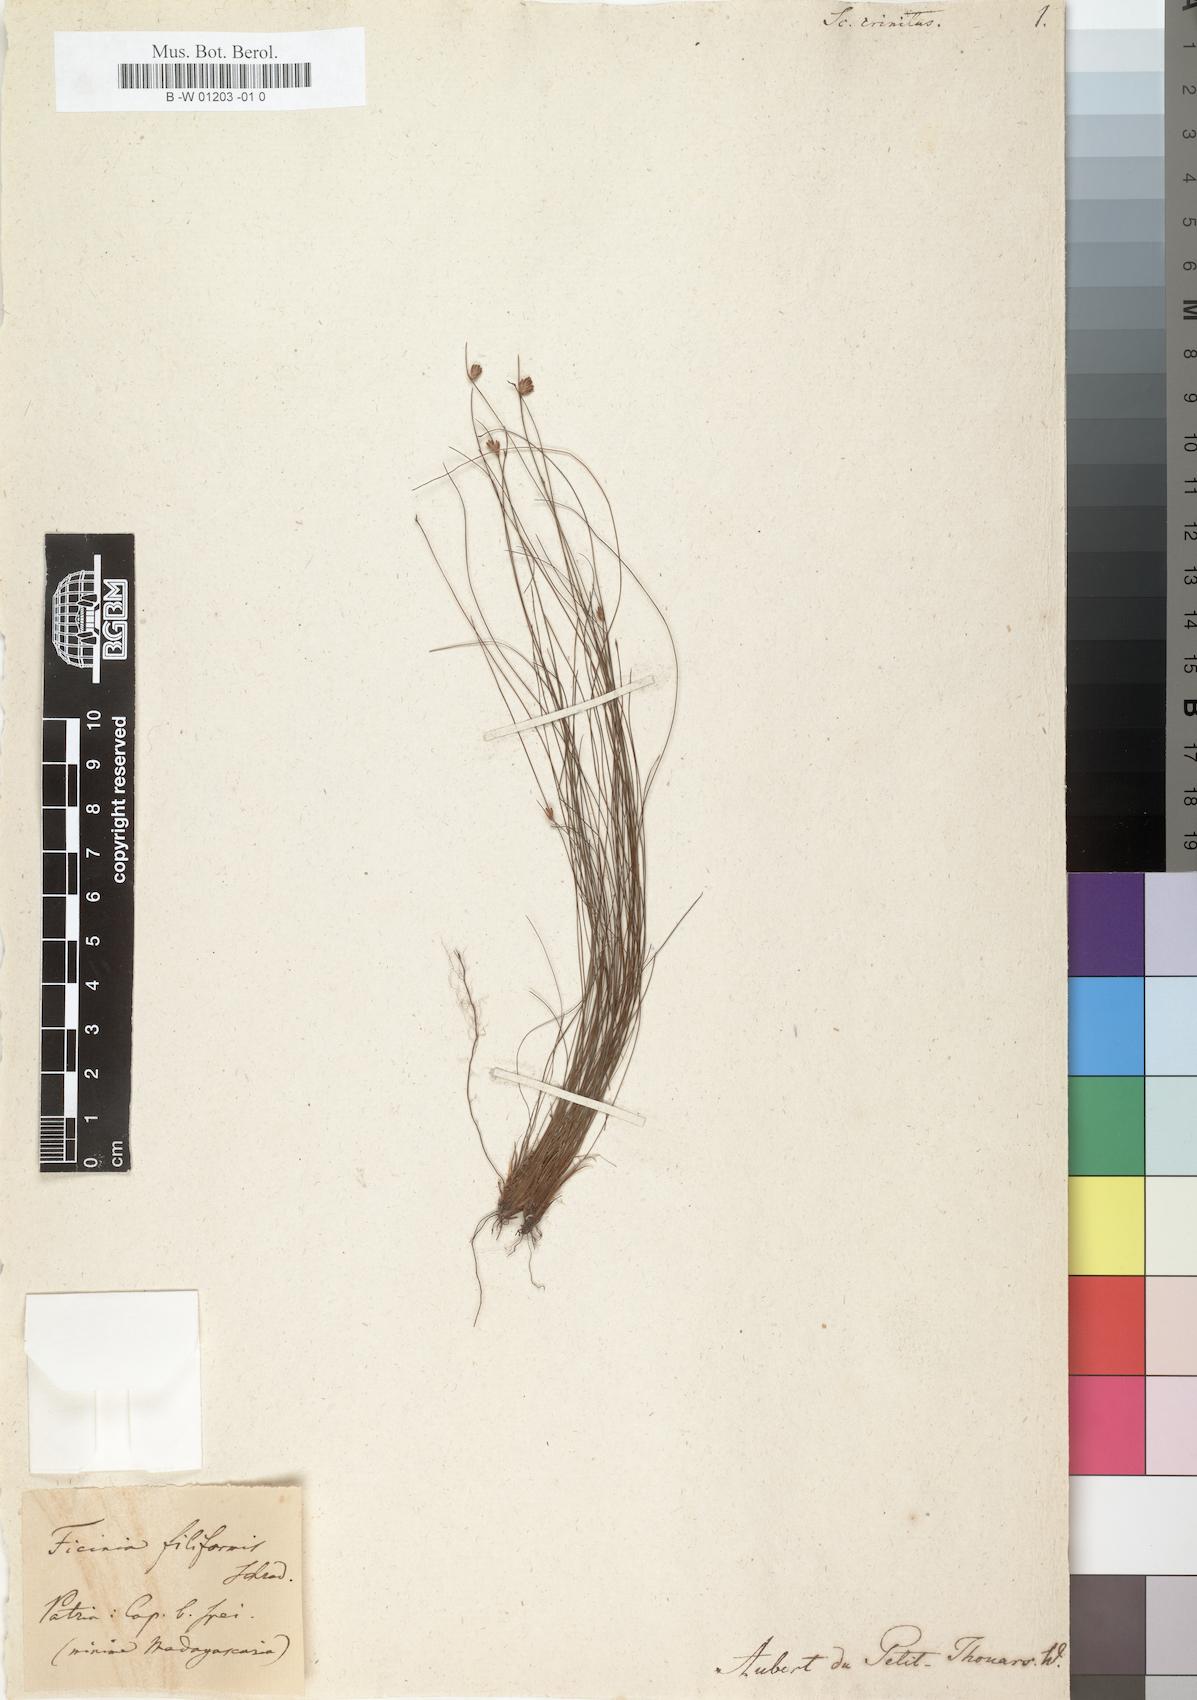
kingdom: Plantae
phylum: Tracheophyta
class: Liliopsida
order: Poales
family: Cyperaceae
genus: Ficinia
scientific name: Ficinia crinita
